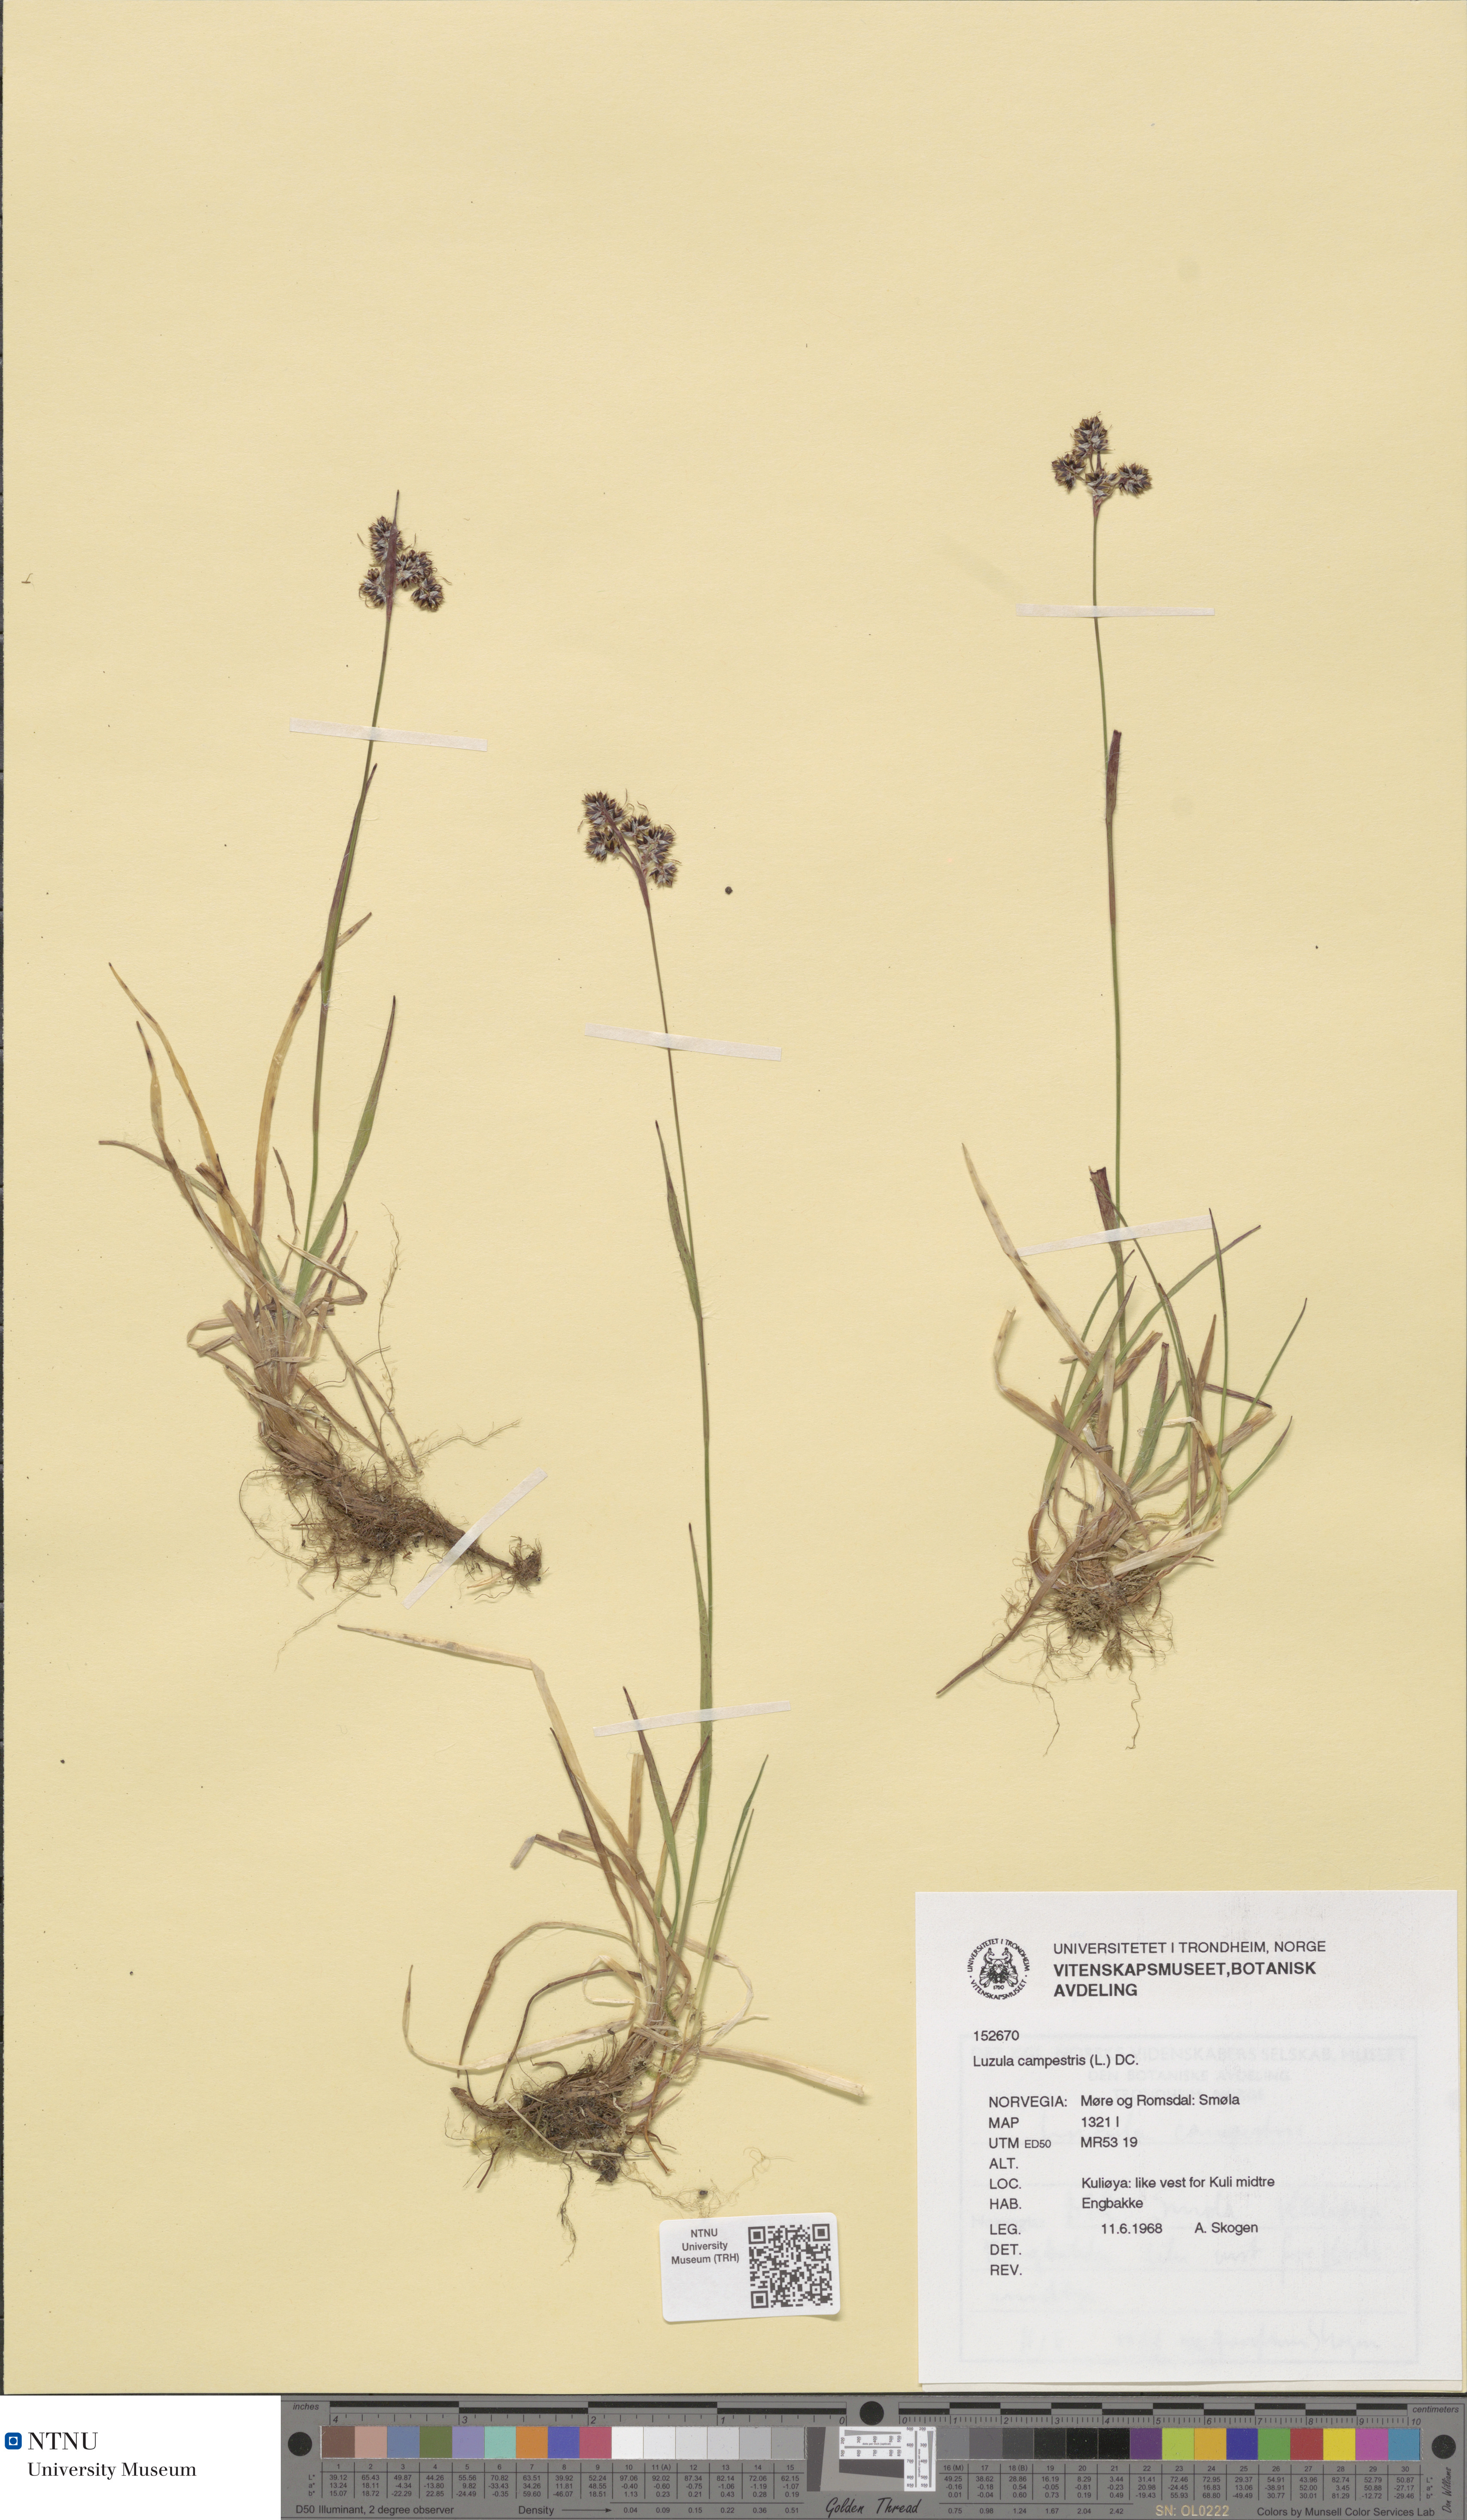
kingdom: Plantae
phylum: Tracheophyta
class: Liliopsida
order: Poales
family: Juncaceae
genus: Luzula
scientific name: Luzula campestris
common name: Field wood-rush
